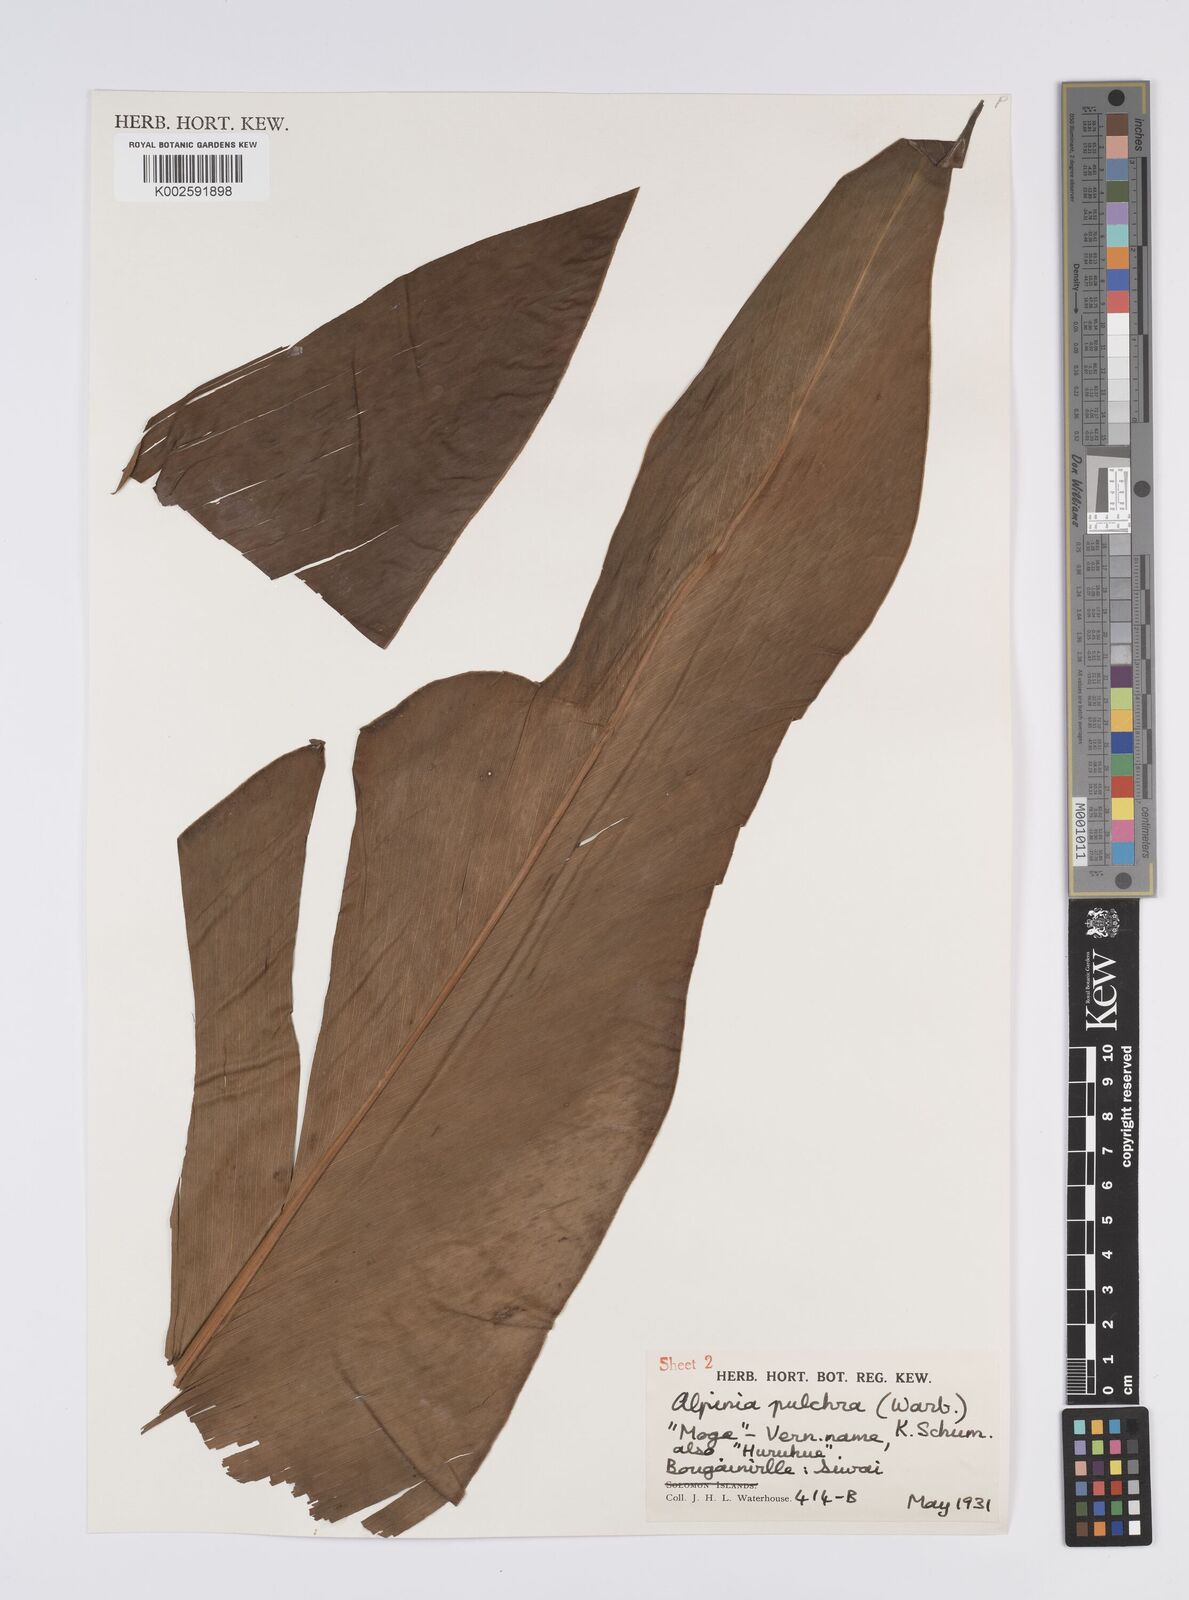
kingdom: Plantae
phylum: Tracheophyta
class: Liliopsida
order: Zingiberales
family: Zingiberaceae
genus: Alpinia
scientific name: Alpinia pulchra
